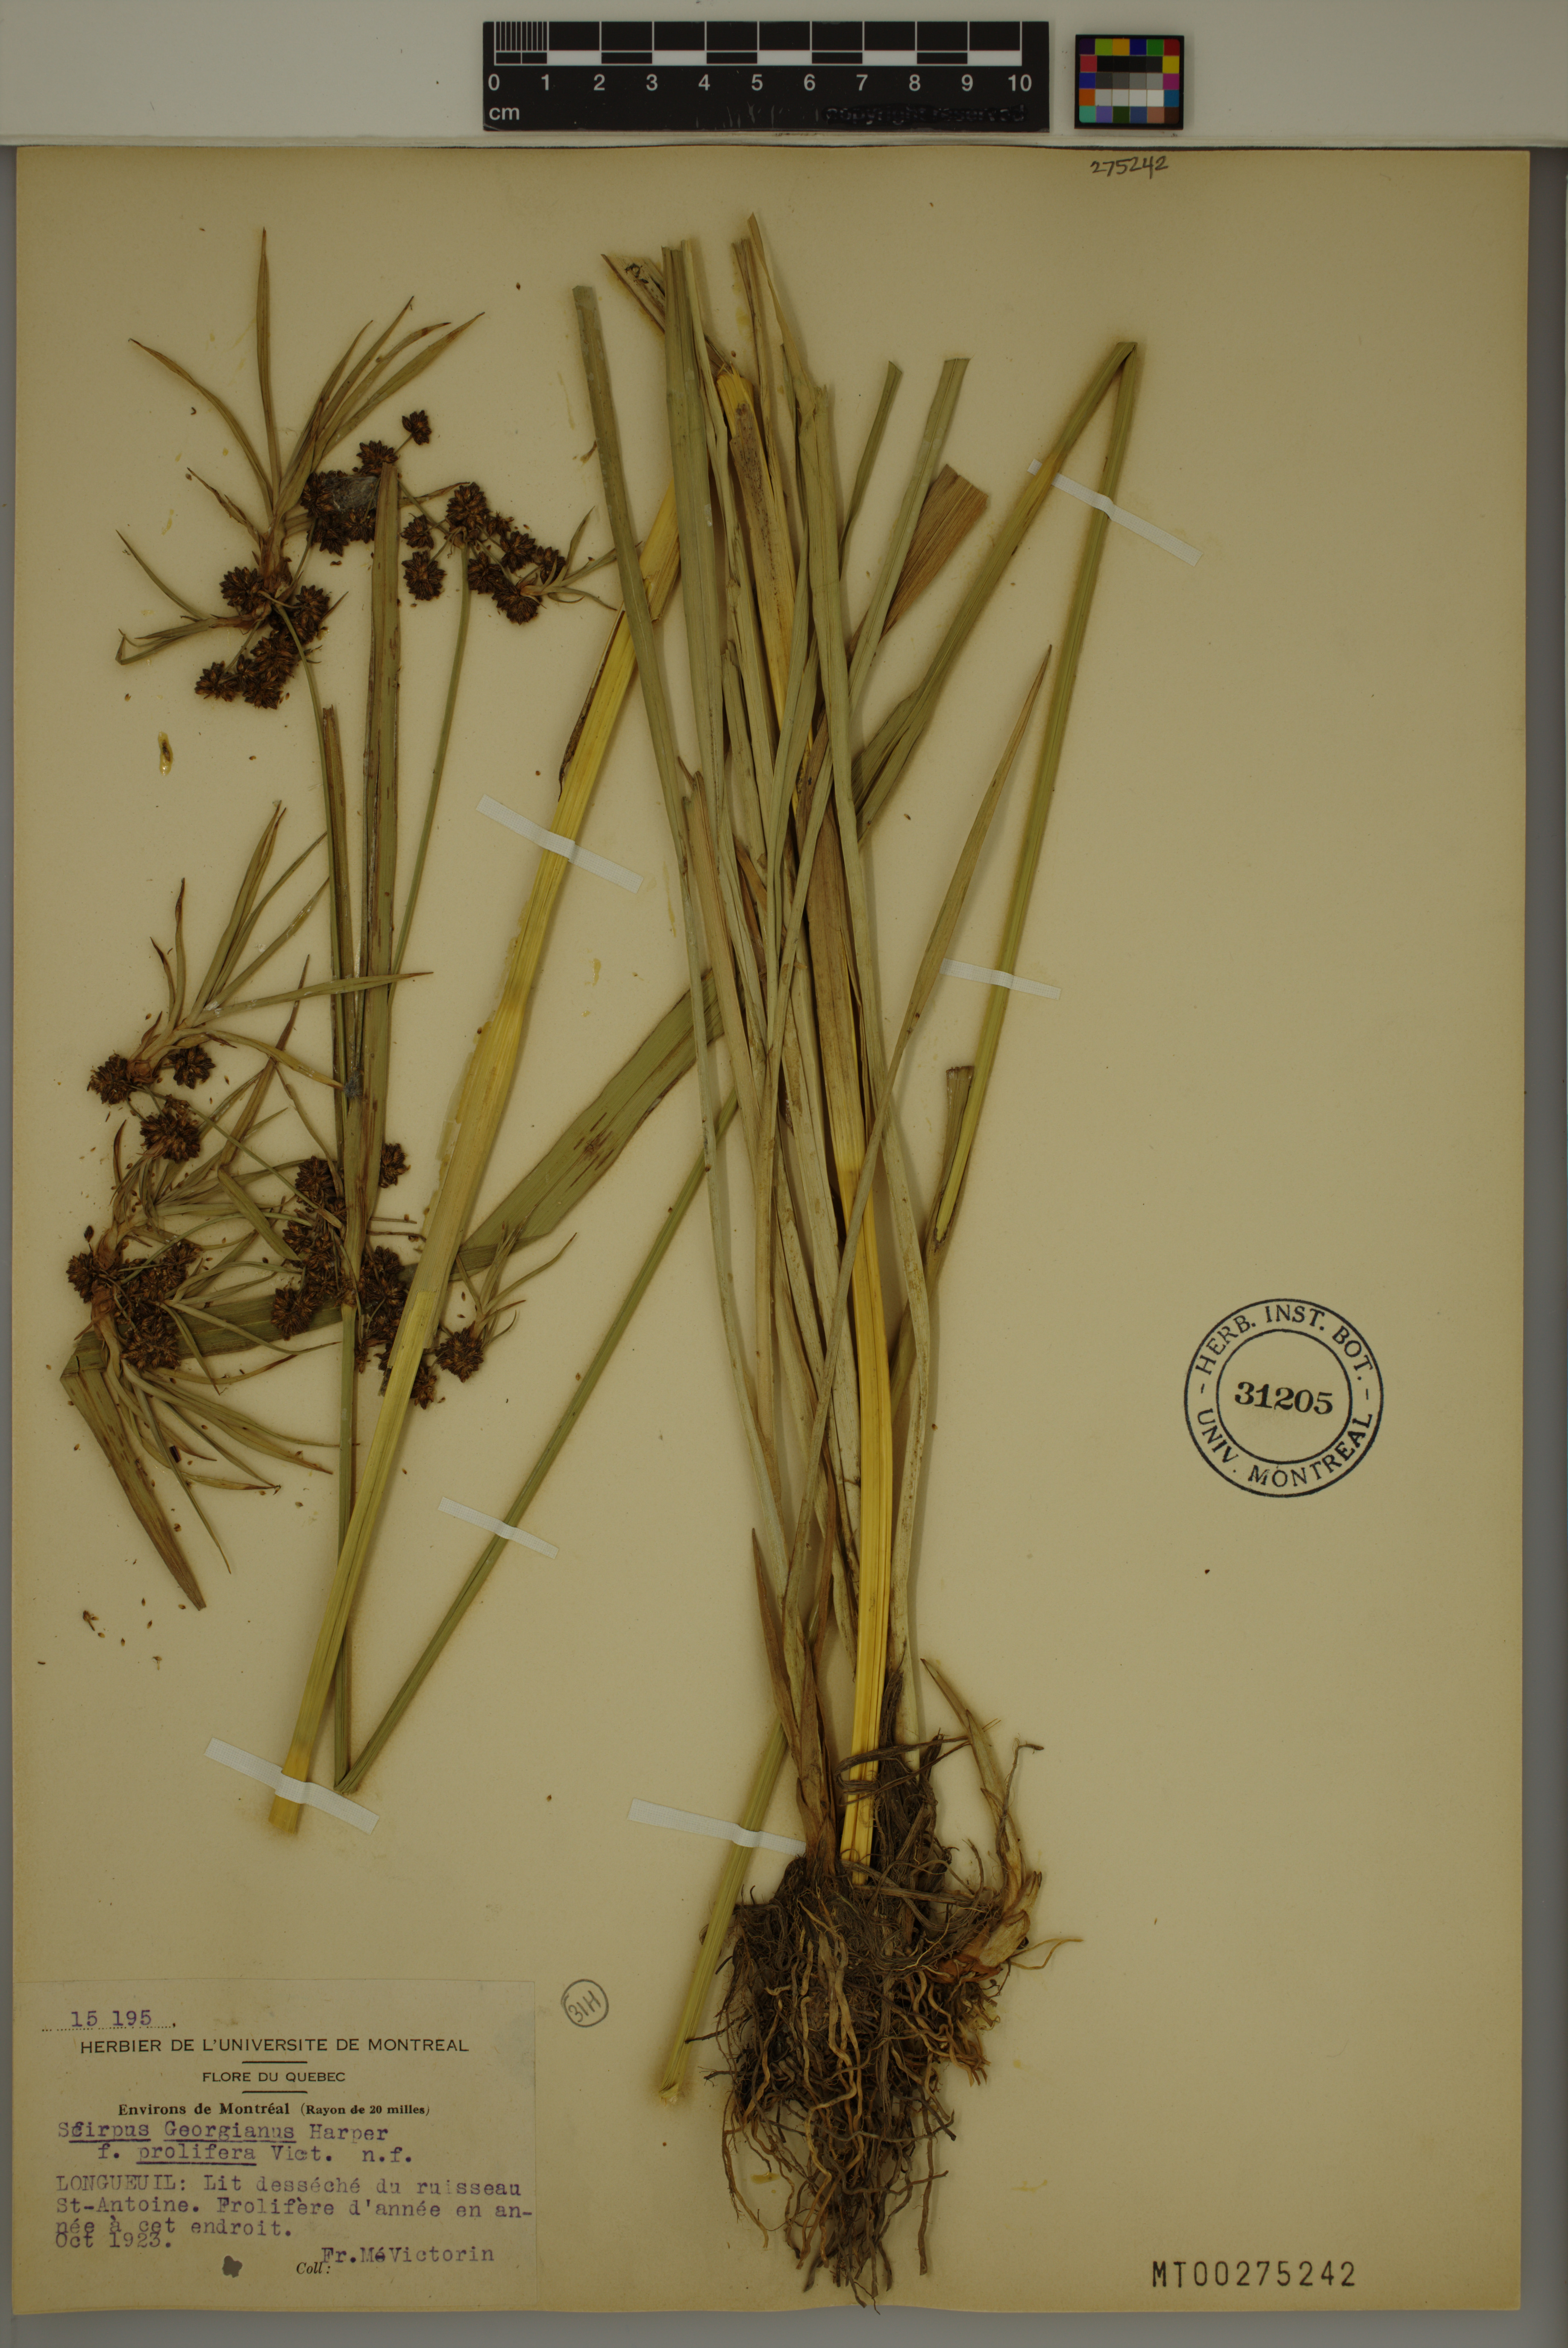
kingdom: Plantae
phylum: Tracheophyta
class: Liliopsida
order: Poales
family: Cyperaceae
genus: Scirpus
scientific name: Scirpus hattorianus
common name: Early dark-green bulrush
